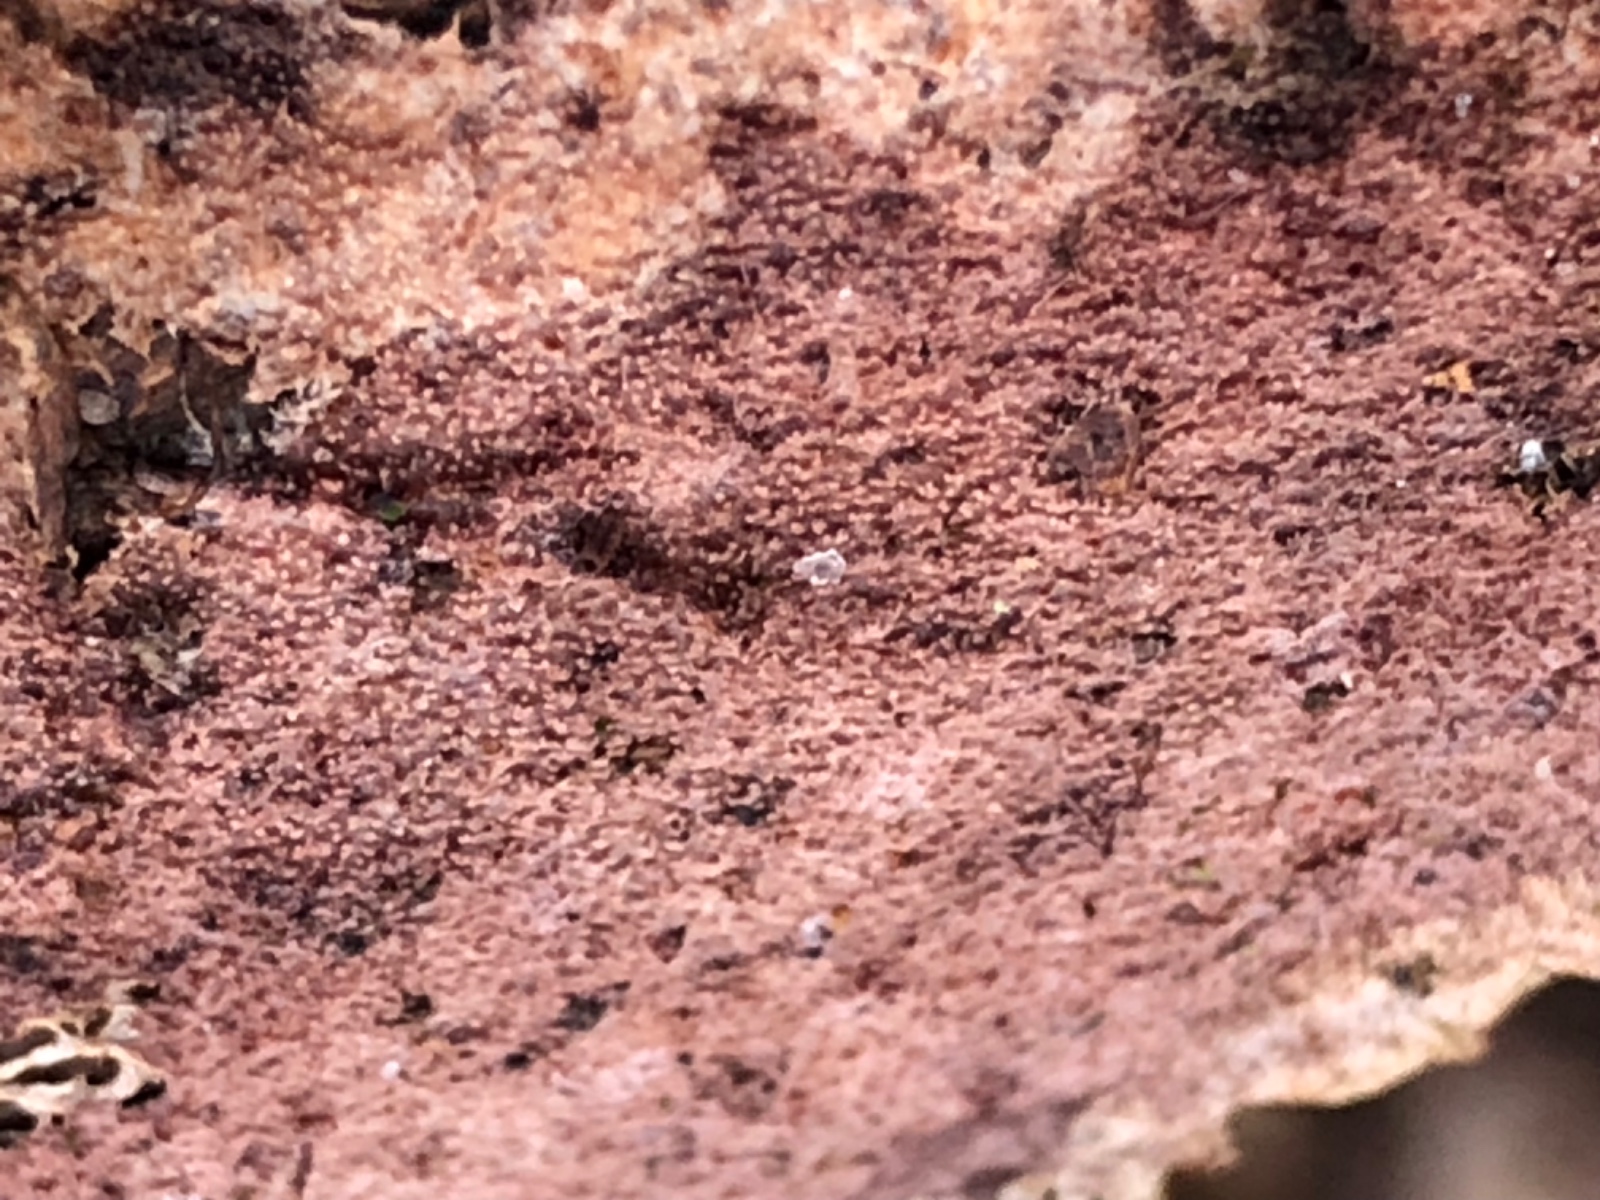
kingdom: Fungi
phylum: Basidiomycota
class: Agaricomycetes
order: Corticiales
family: Corticiaceae
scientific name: Corticiaceae
